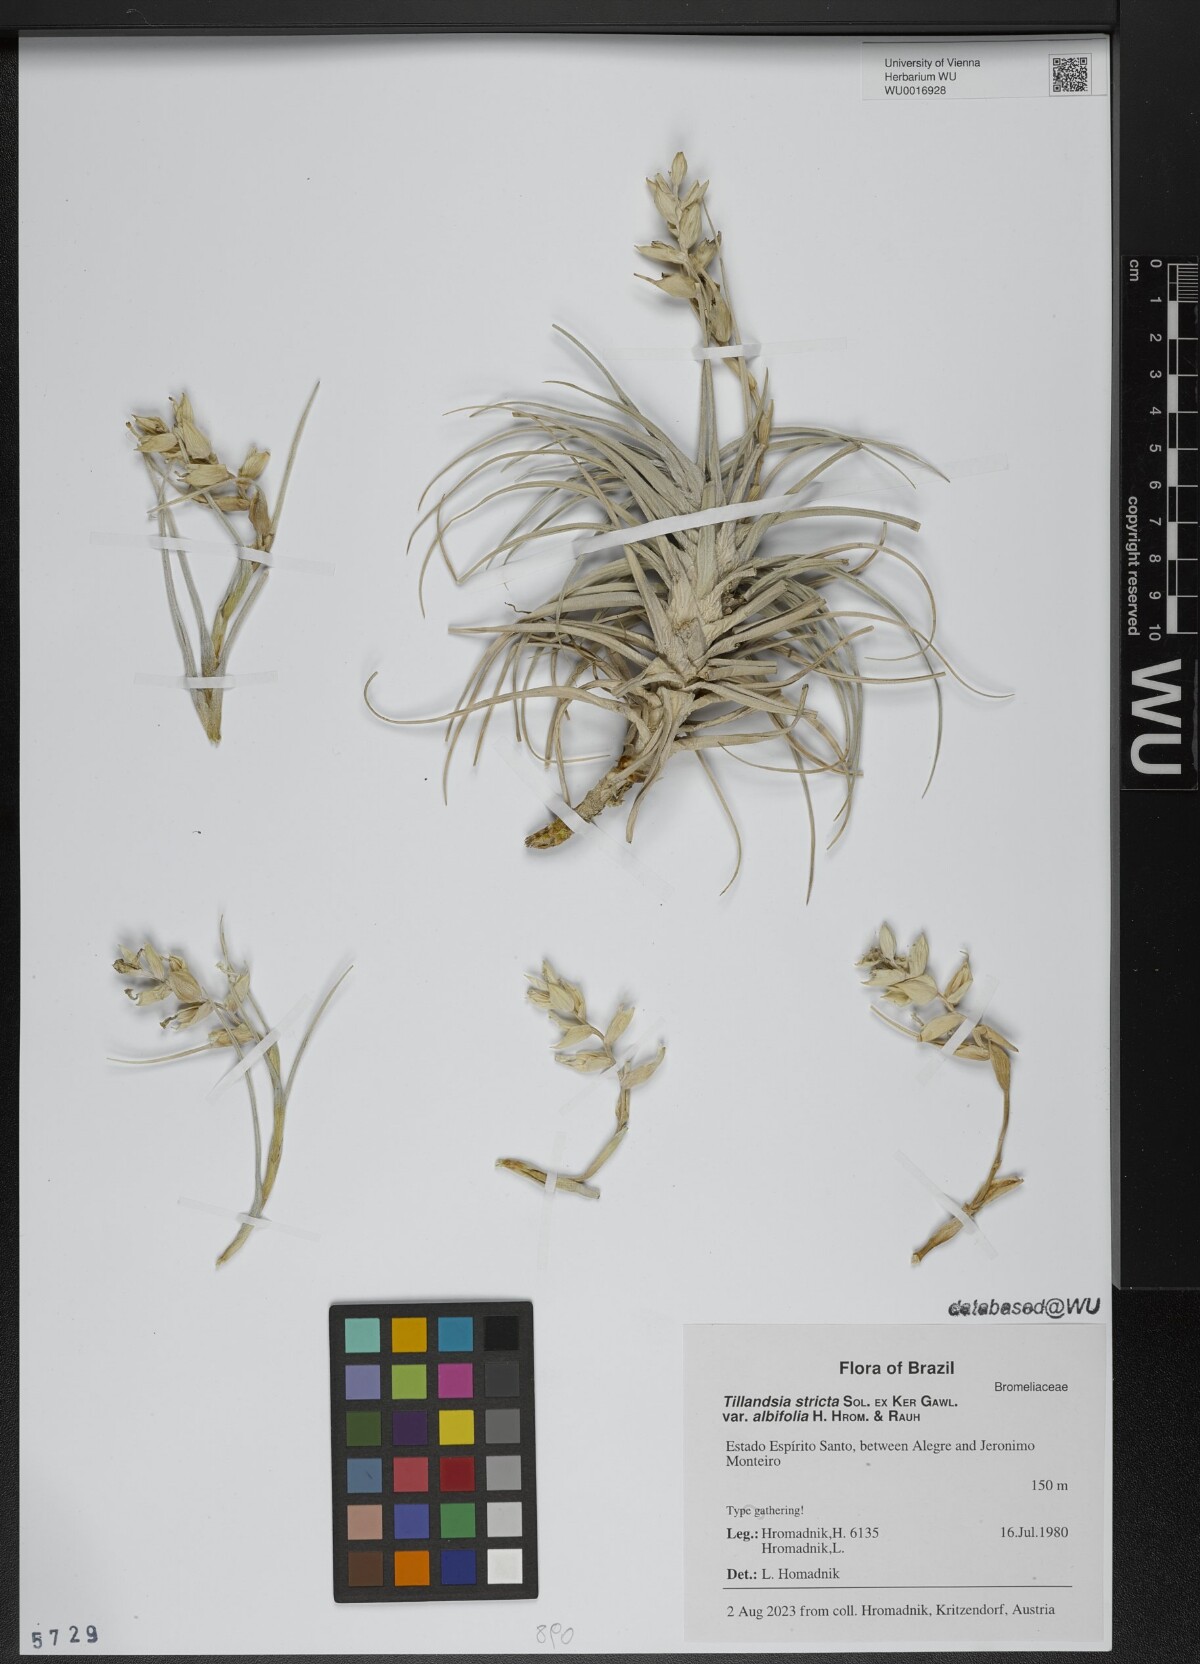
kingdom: Plantae
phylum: Tracheophyta
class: Liliopsida
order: Poales
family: Bromeliaceae
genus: Tillandsia
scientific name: Tillandsia stricta
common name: Airplant
